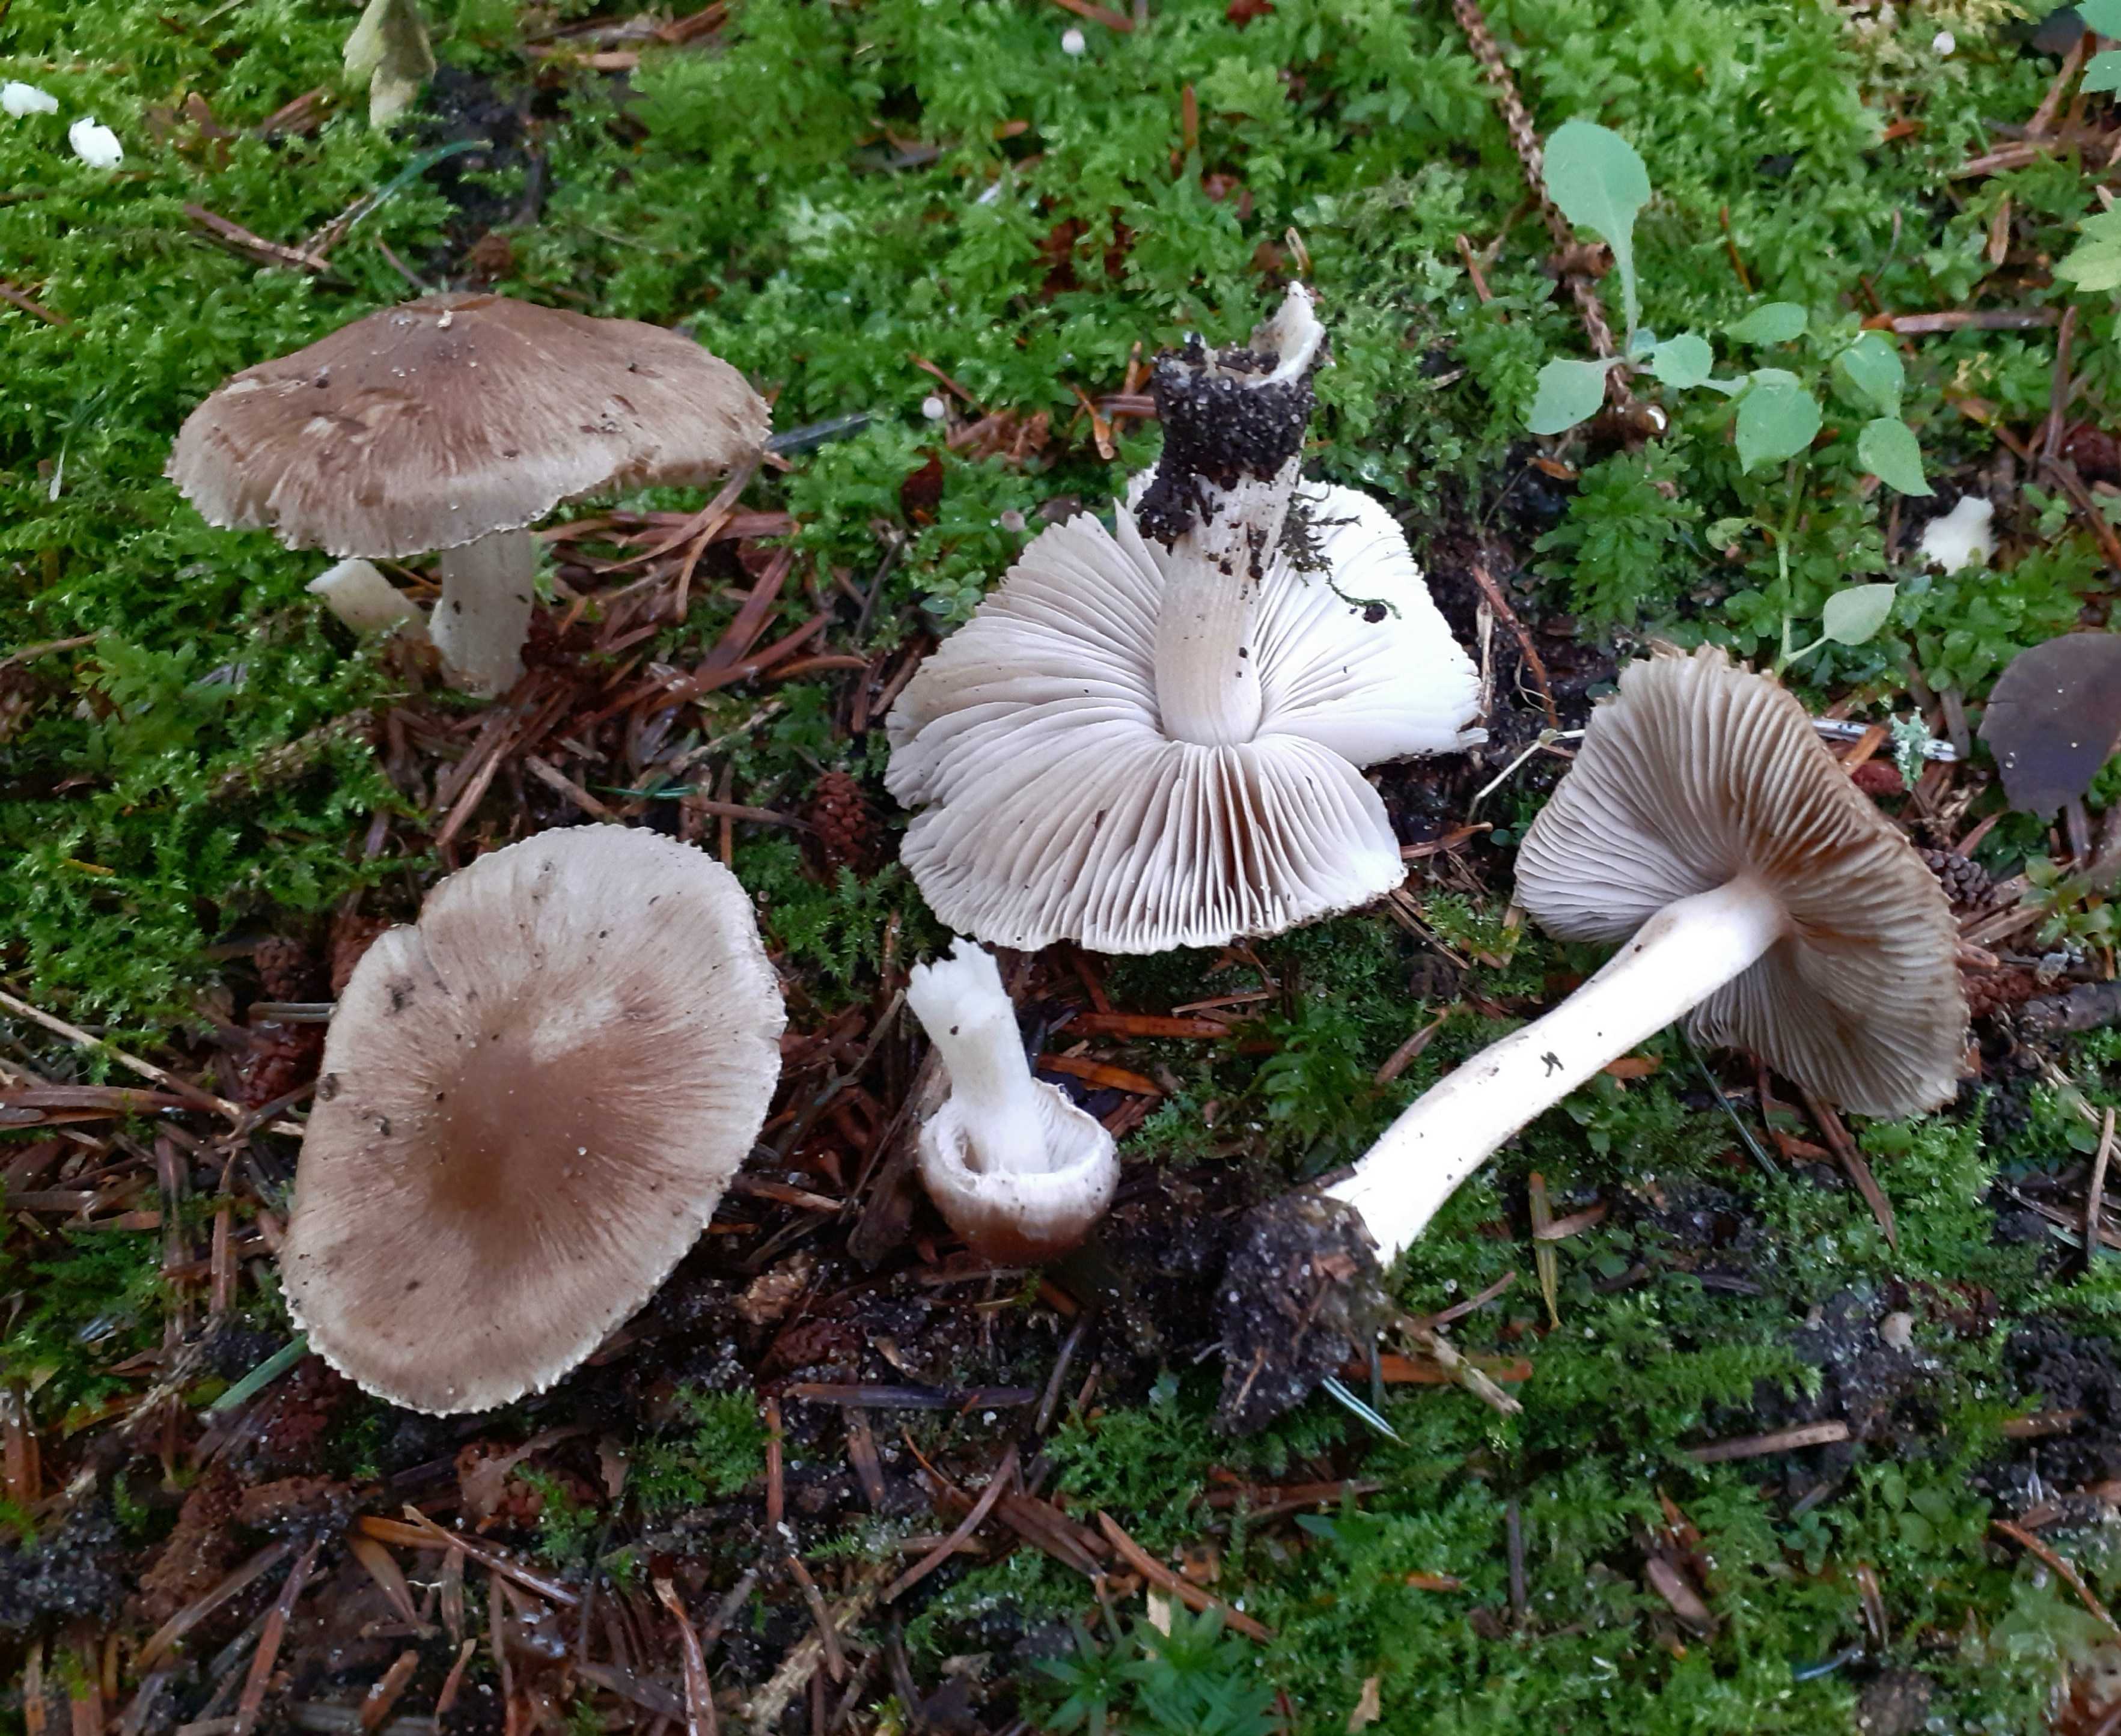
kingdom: Fungi
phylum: Basidiomycota
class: Agaricomycetes
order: Agaricales
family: Inocybaceae
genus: Inocybe
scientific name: Inocybe
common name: trævlhat
